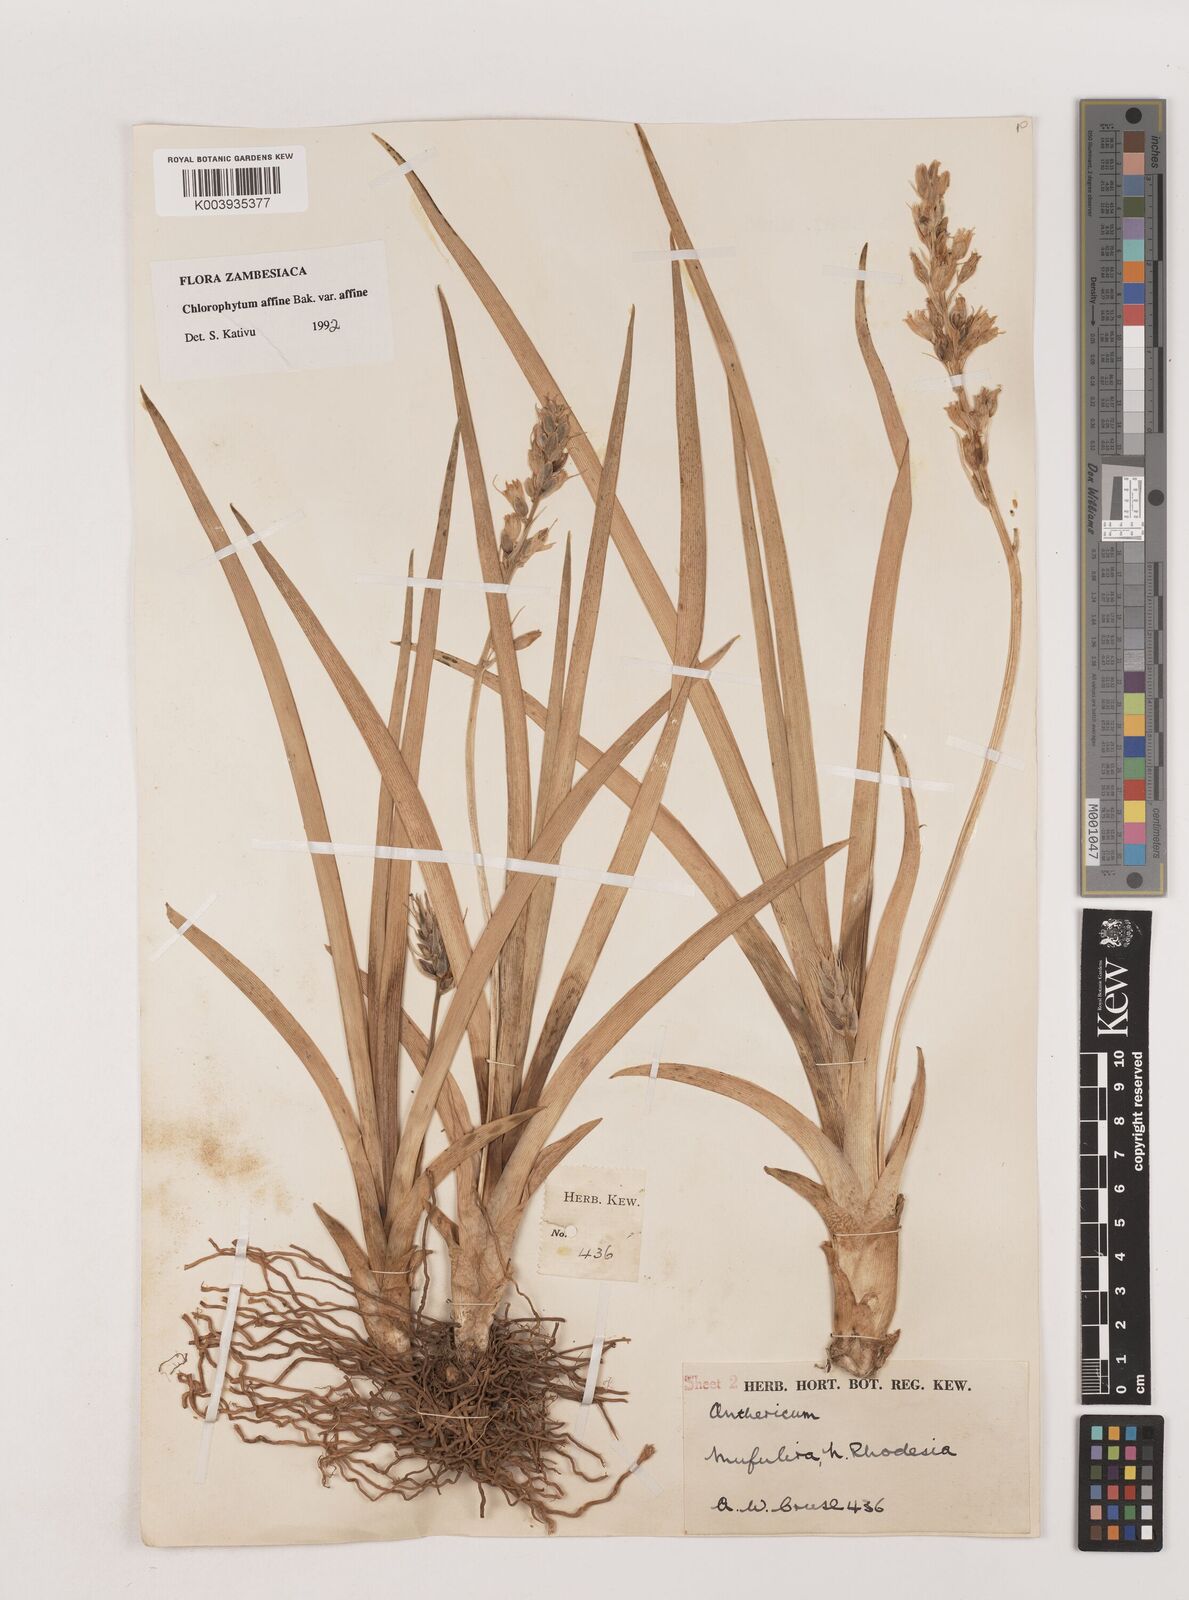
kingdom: Plantae
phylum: Tracheophyta
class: Liliopsida
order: Asparagales
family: Asparagaceae
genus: Chlorophytum
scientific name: Chlorophytum affine
